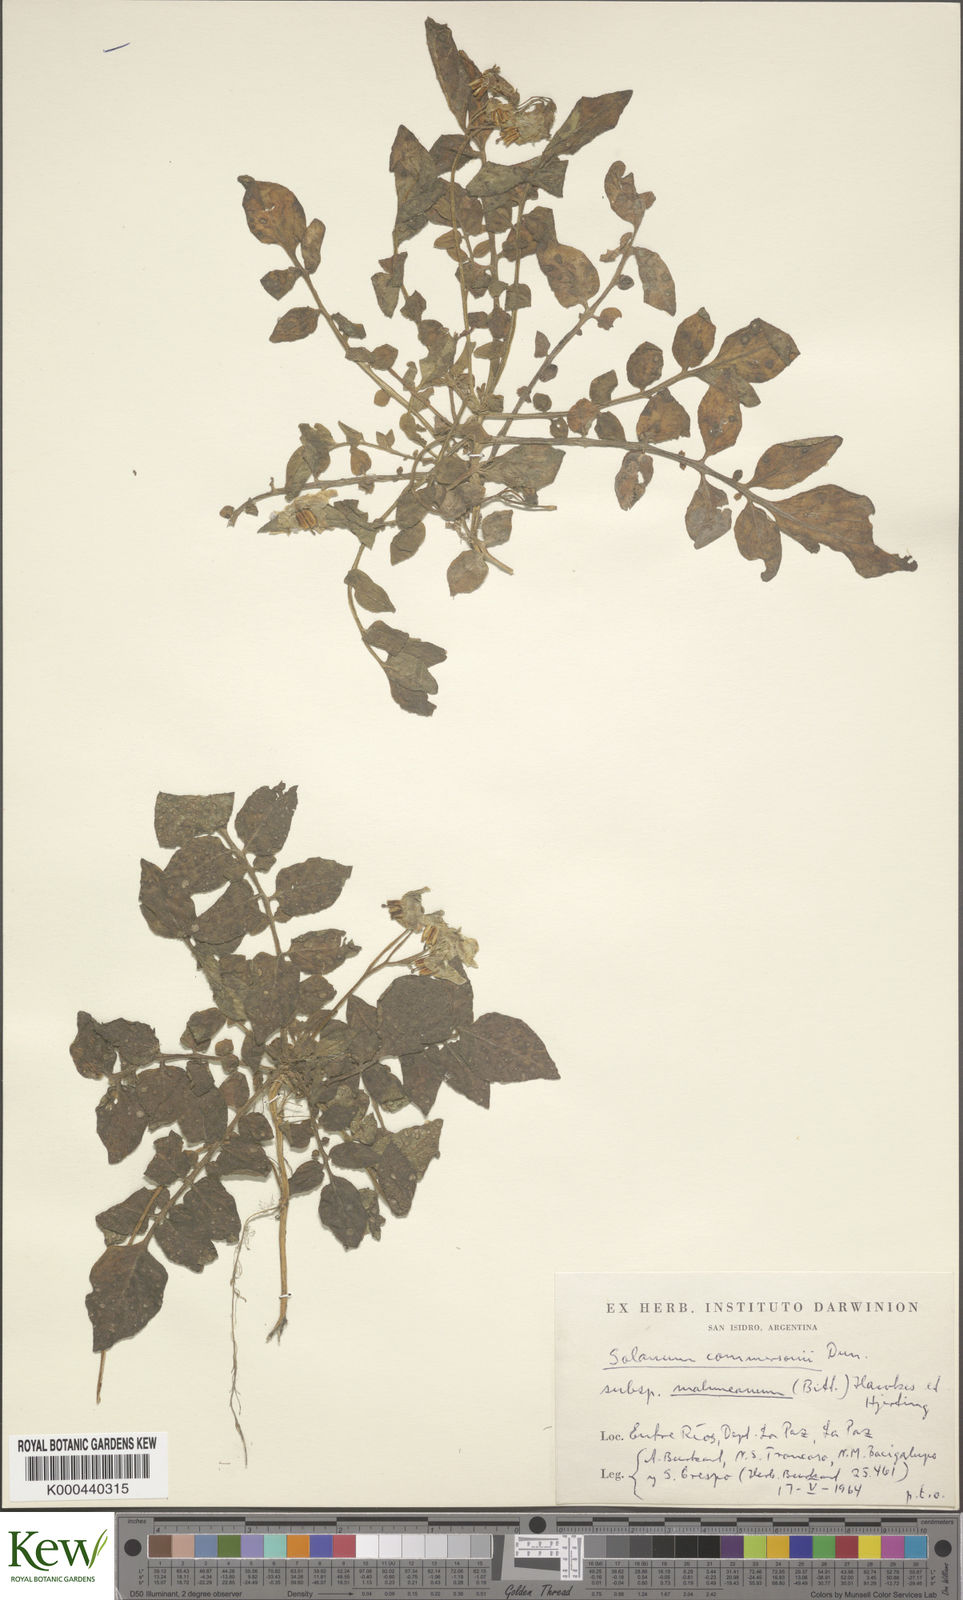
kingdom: Plantae
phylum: Tracheophyta
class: Magnoliopsida
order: Solanales
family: Solanaceae
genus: Solanum
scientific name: Solanum malmeanum
